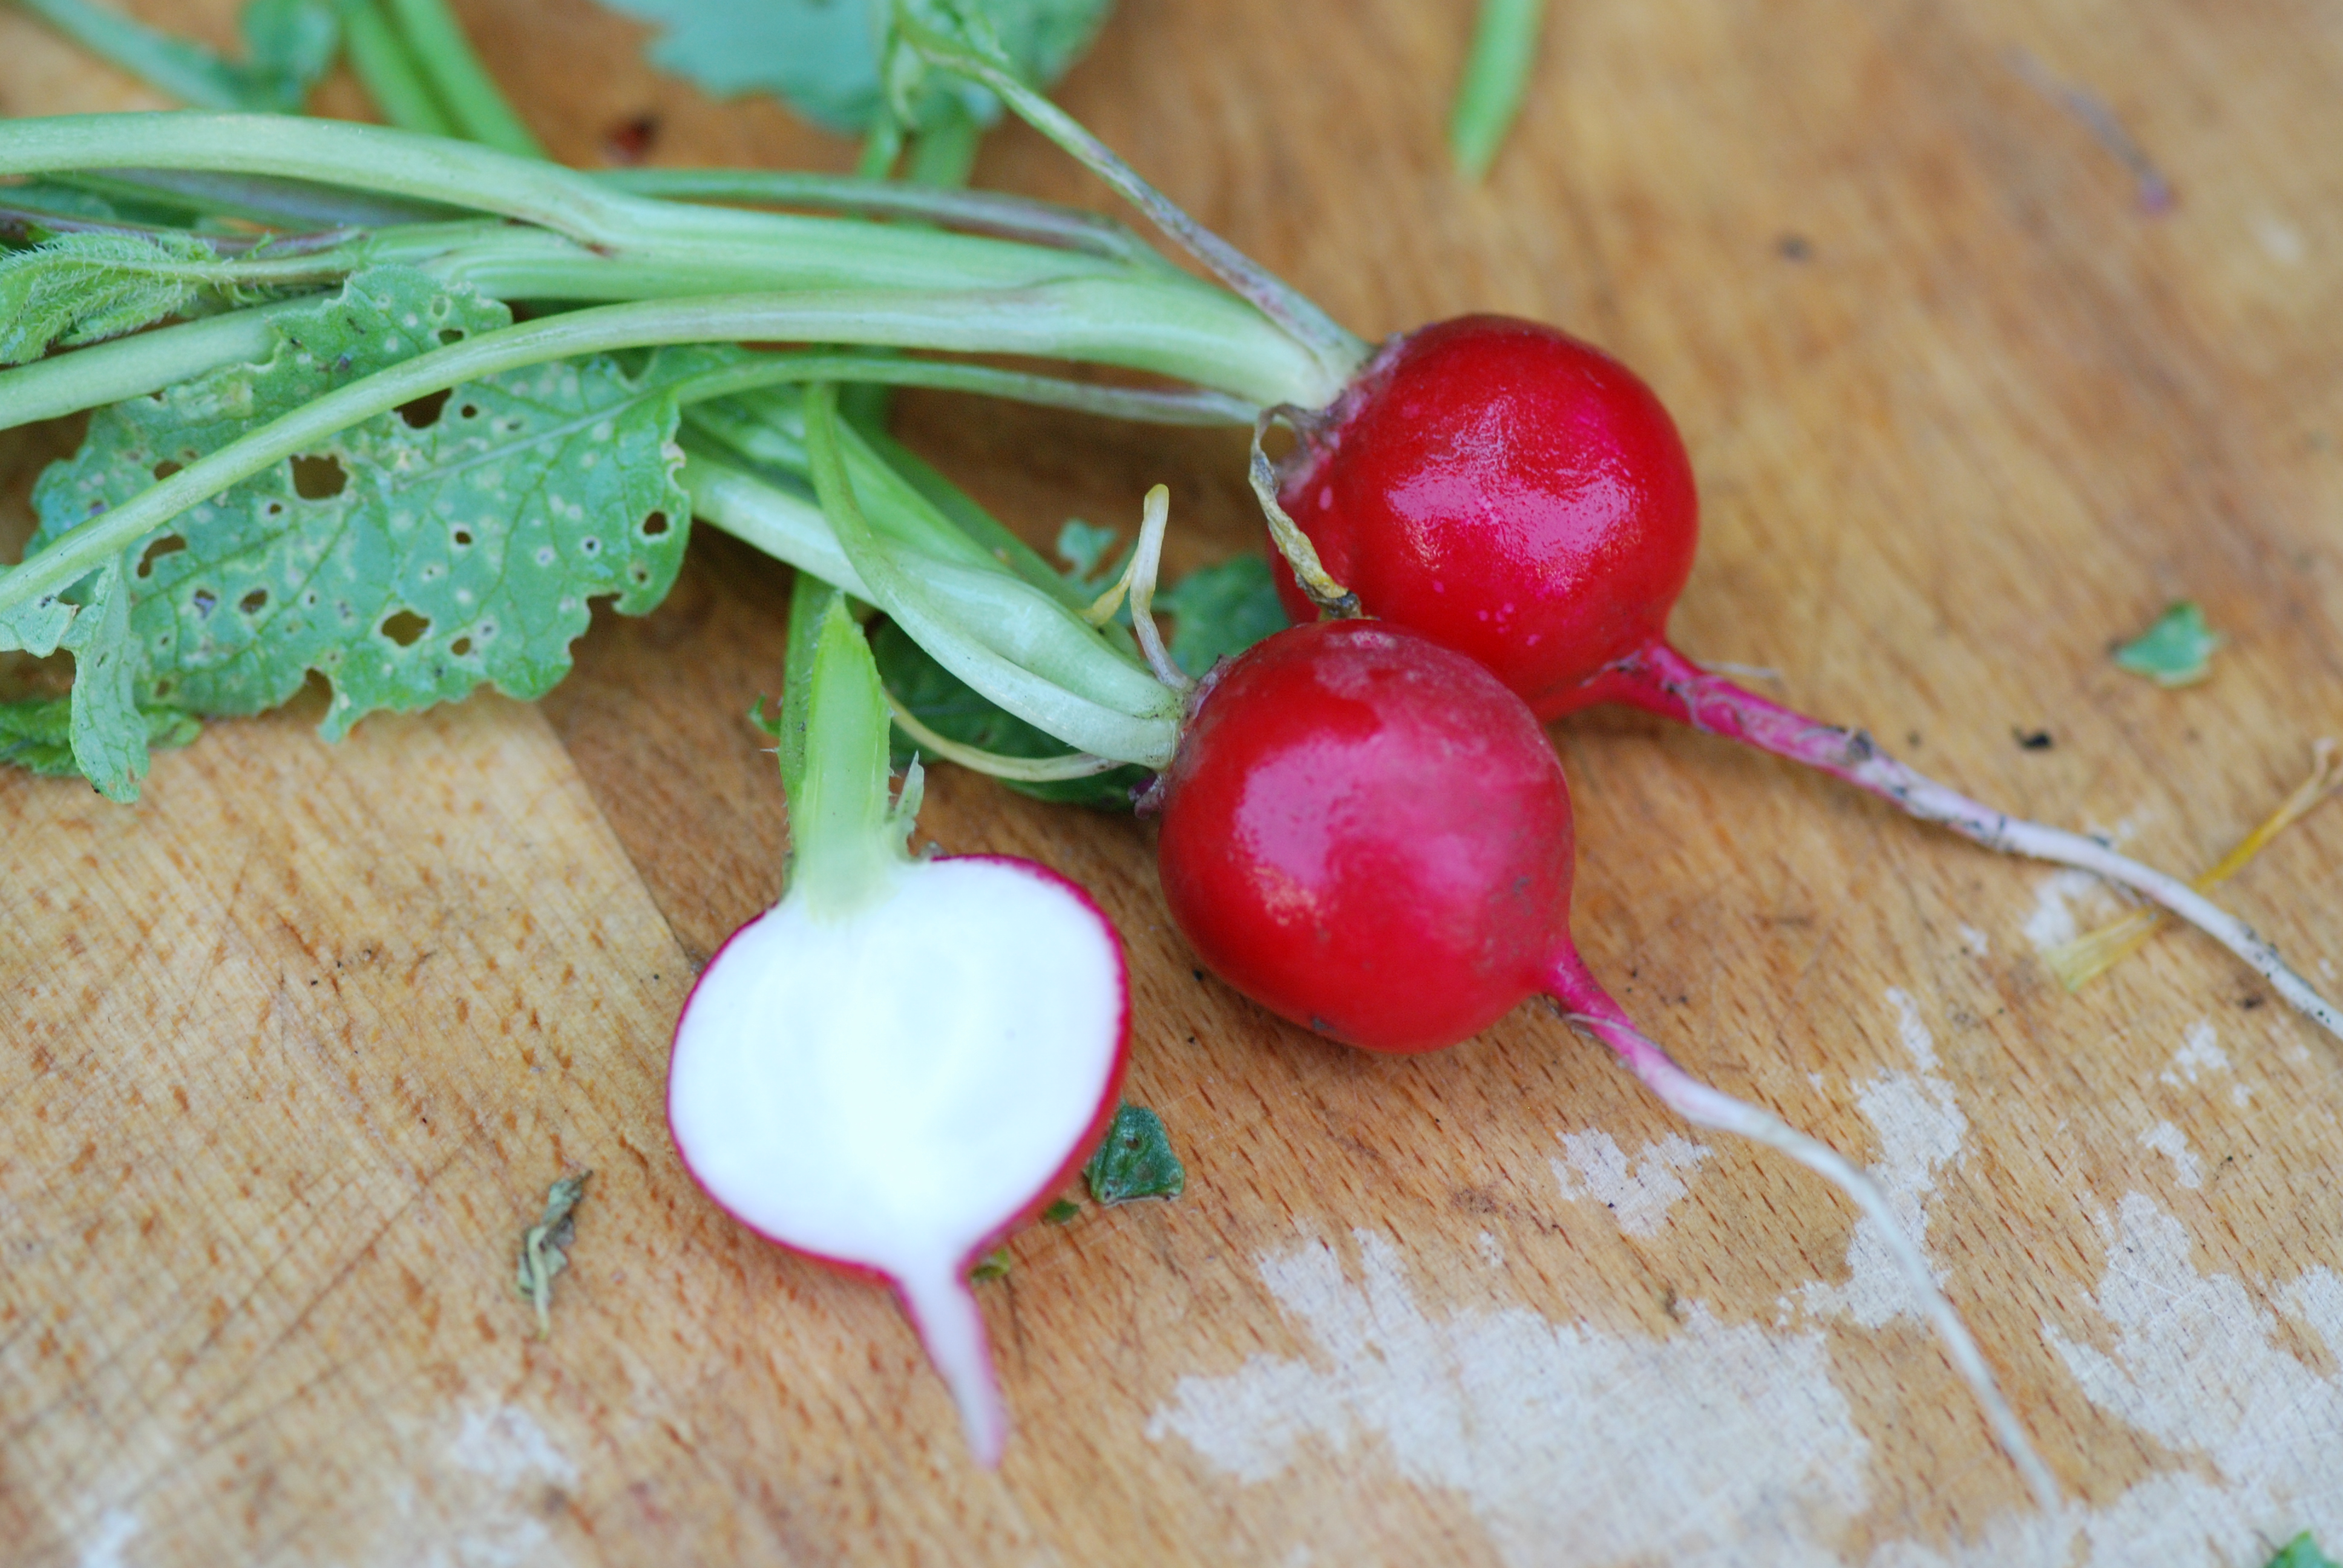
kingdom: Plantae
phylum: Tracheophyta
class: Magnoliopsida
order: Brassicales
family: Brassicaceae
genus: Raphanus
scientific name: Raphanus sativus
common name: Cultivated radish
